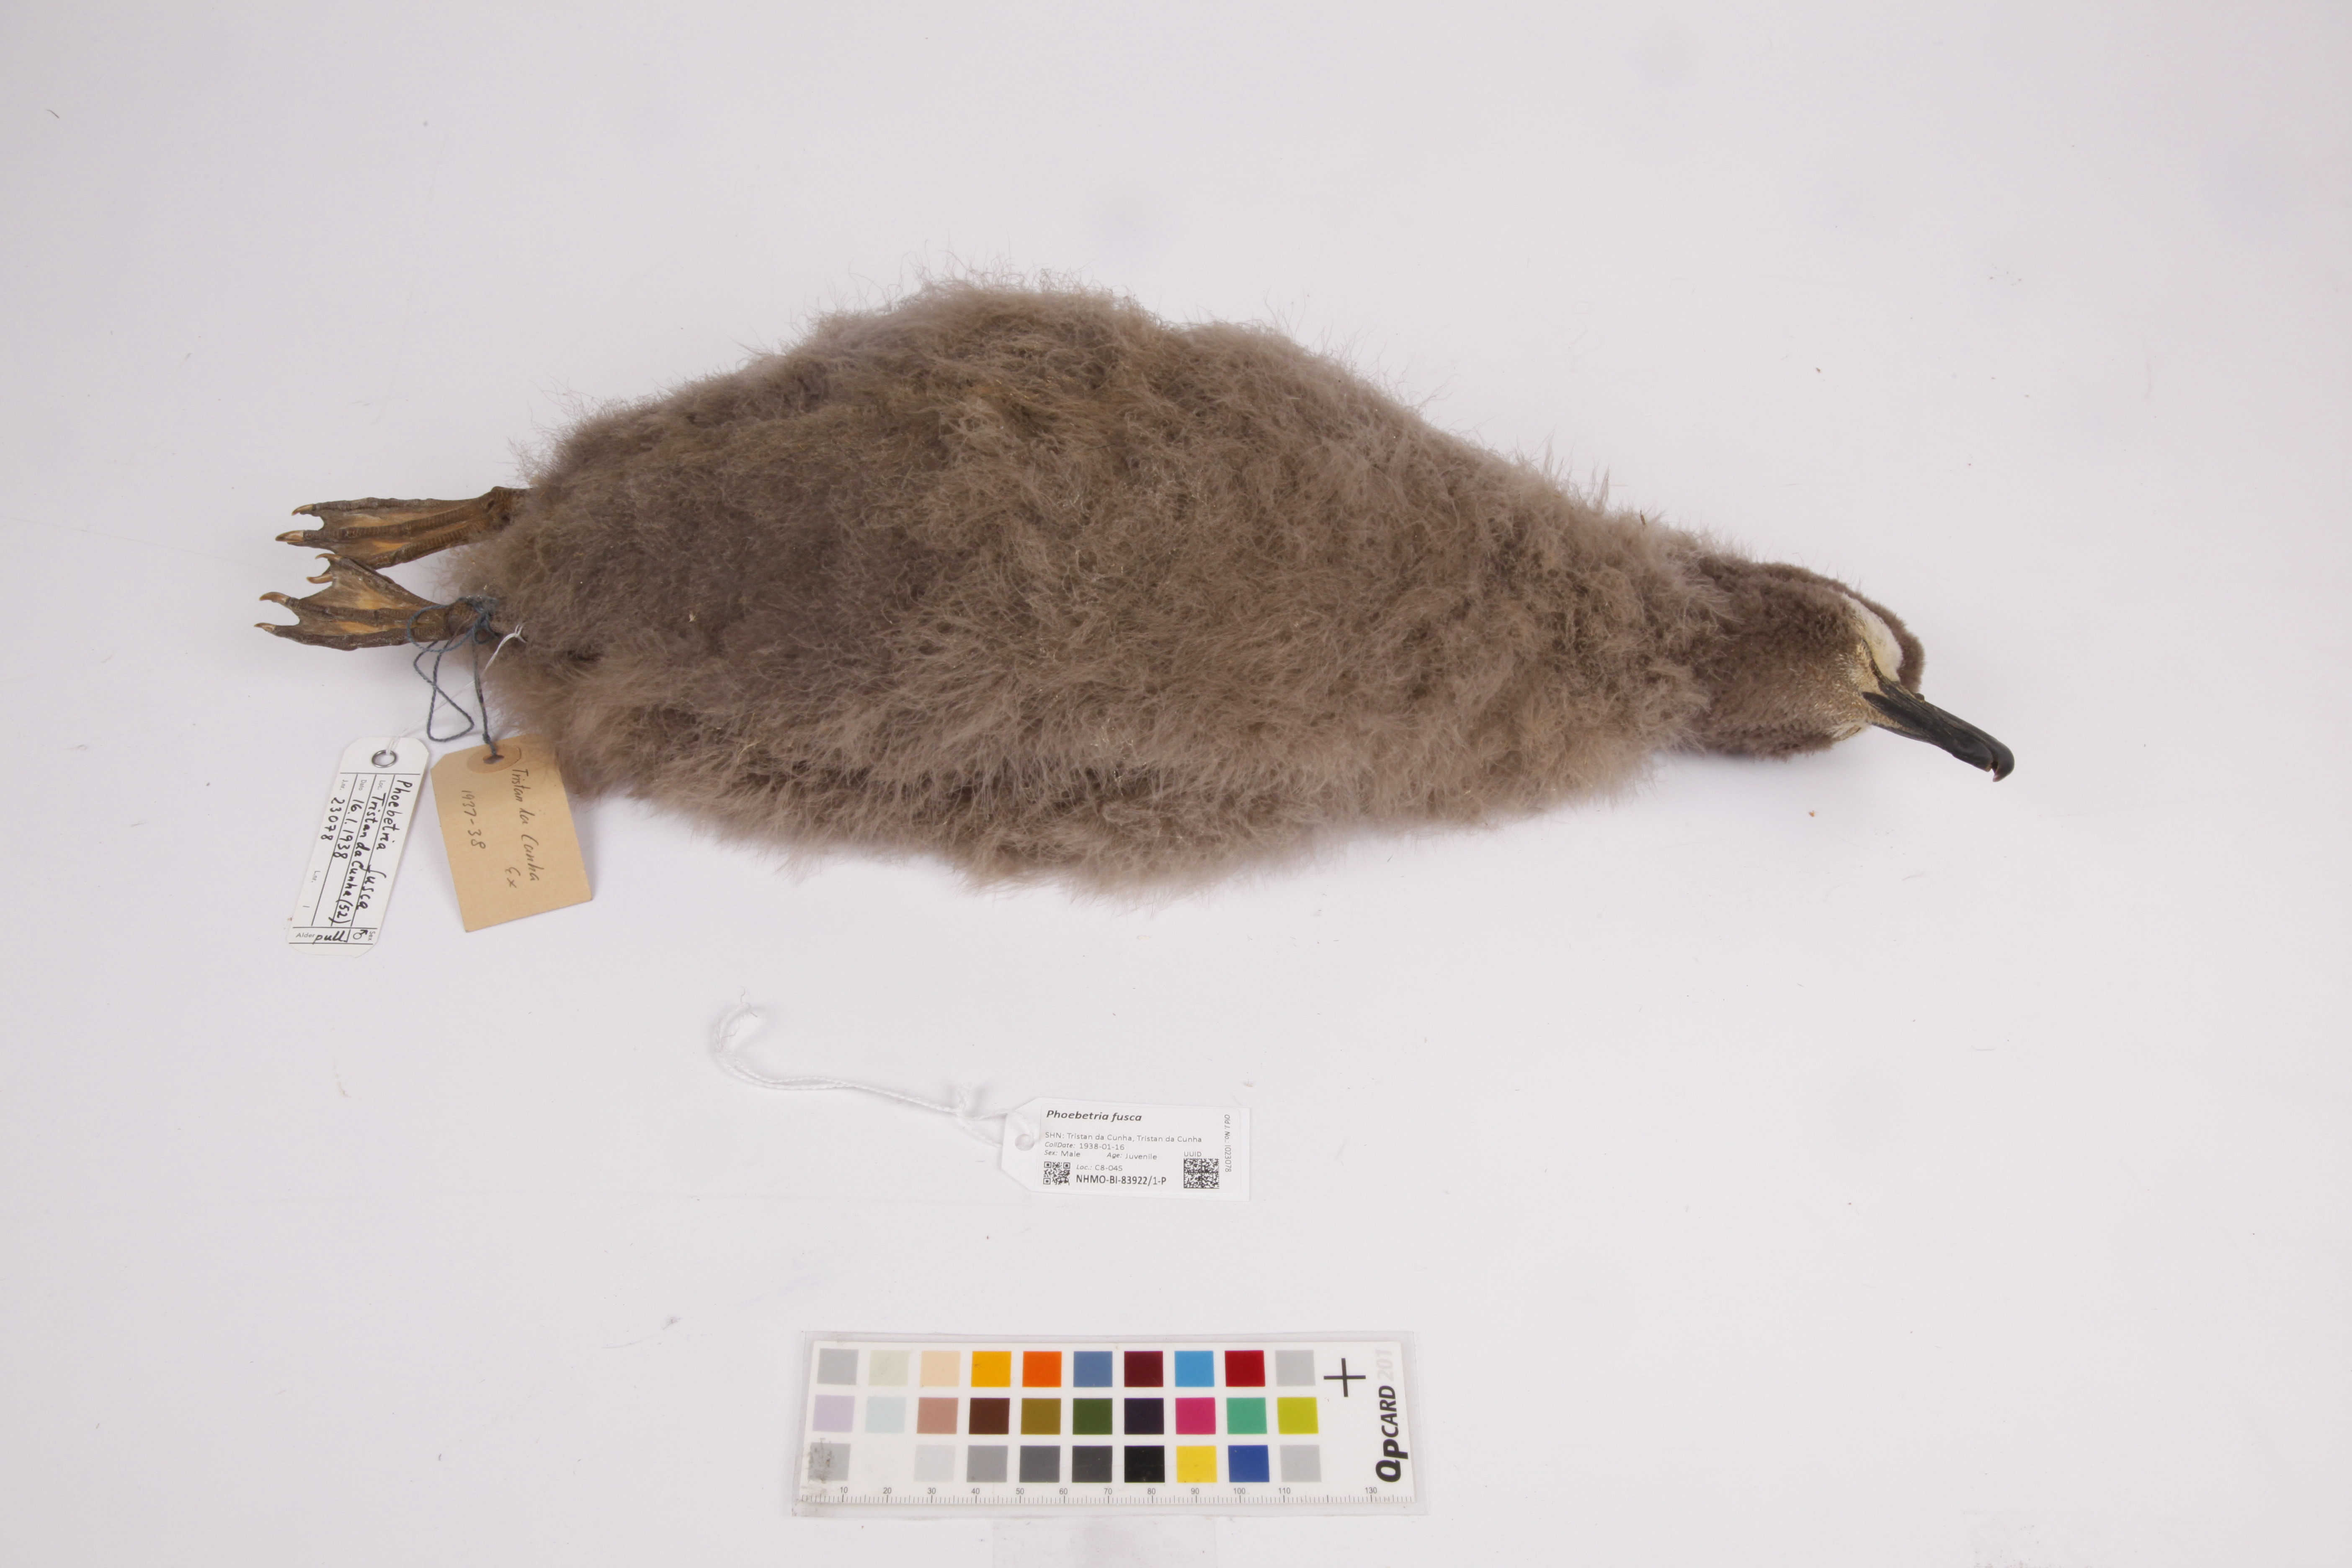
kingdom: Animalia
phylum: Chordata
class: Aves
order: Procellariiformes
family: Diomedeidae
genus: Phoebetria
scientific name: Phoebetria fusca
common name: Sooty albatross
